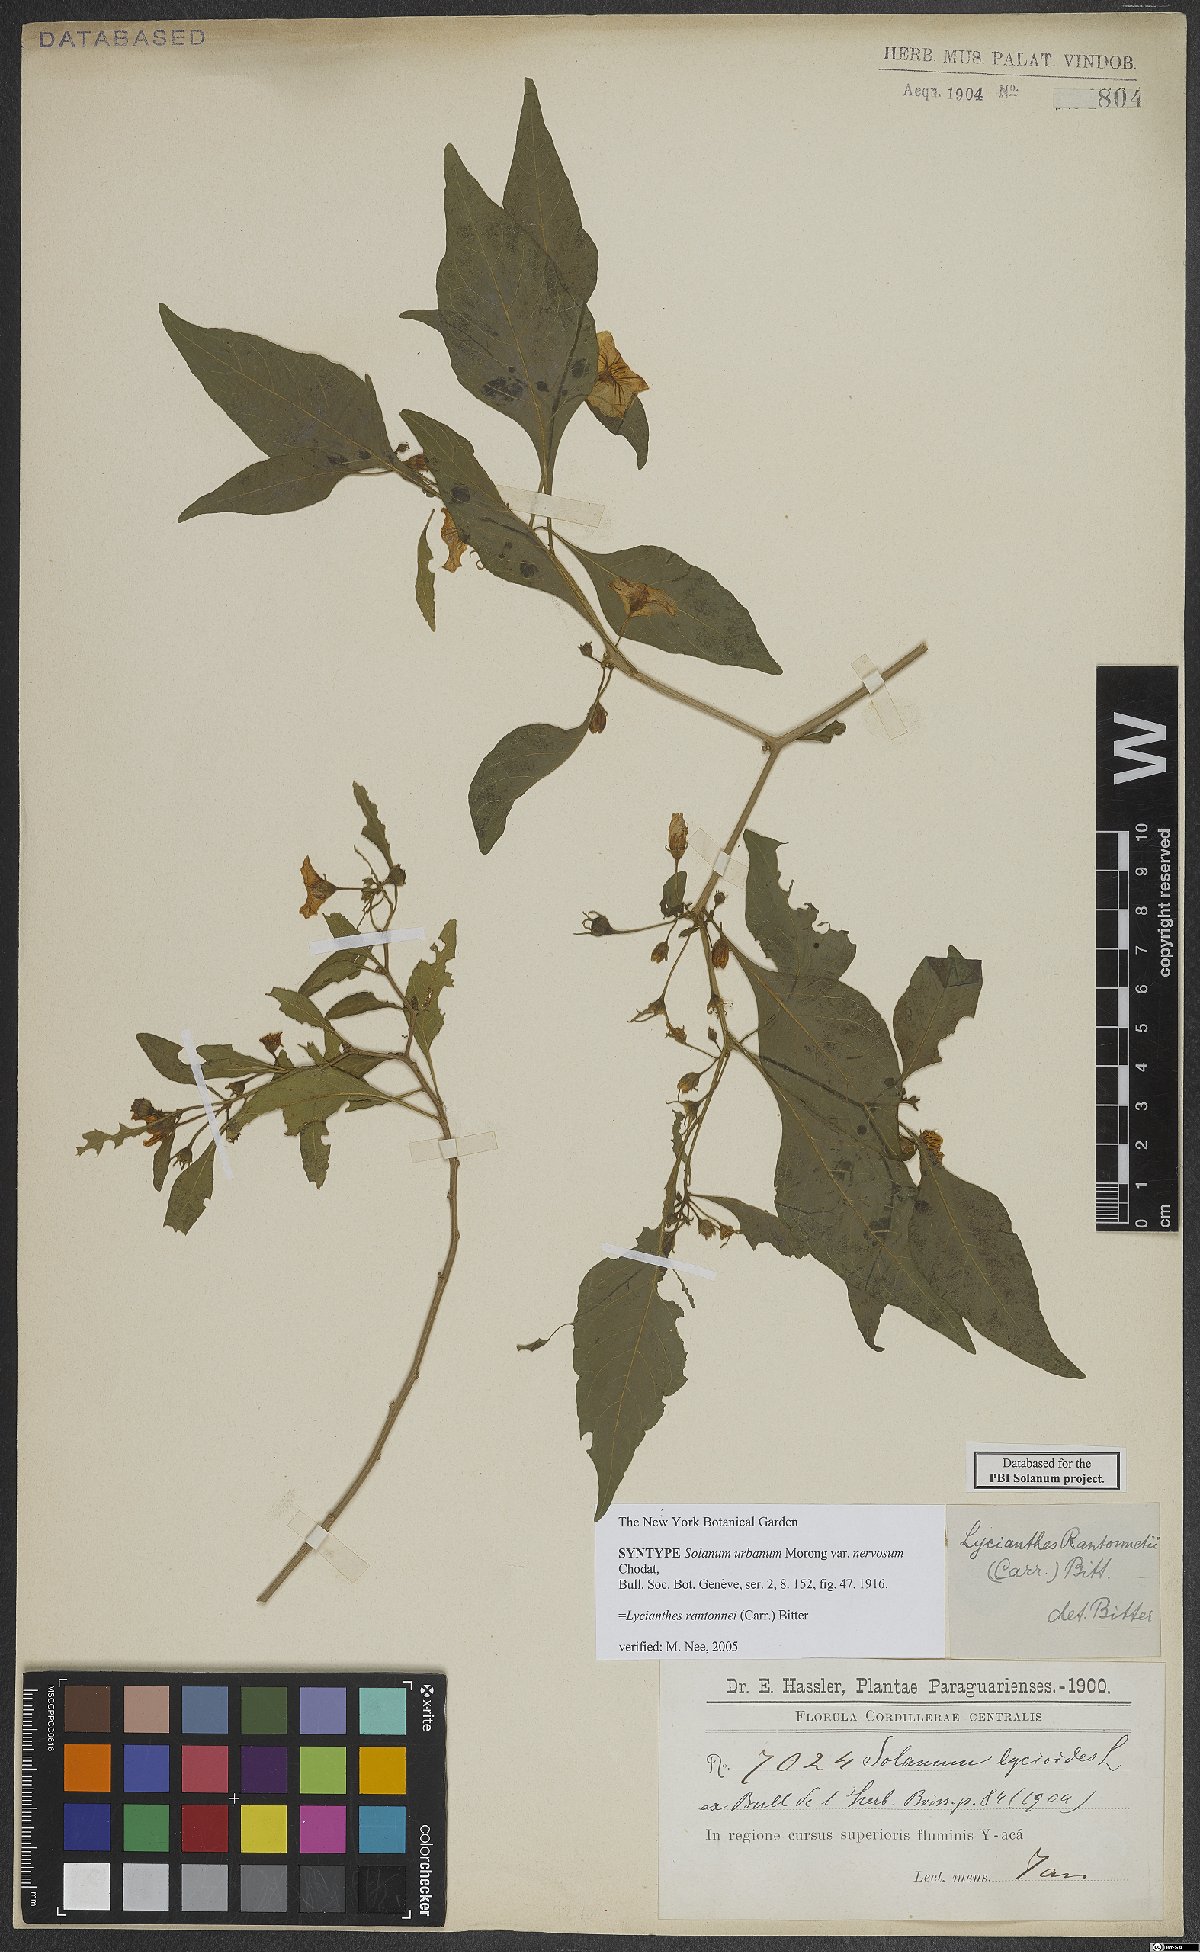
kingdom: Plantae
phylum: Tracheophyta
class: Magnoliopsida
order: Solanales
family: Solanaceae
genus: Lycianthes
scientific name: Lycianthes rantonnetii
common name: Blue potatobush
